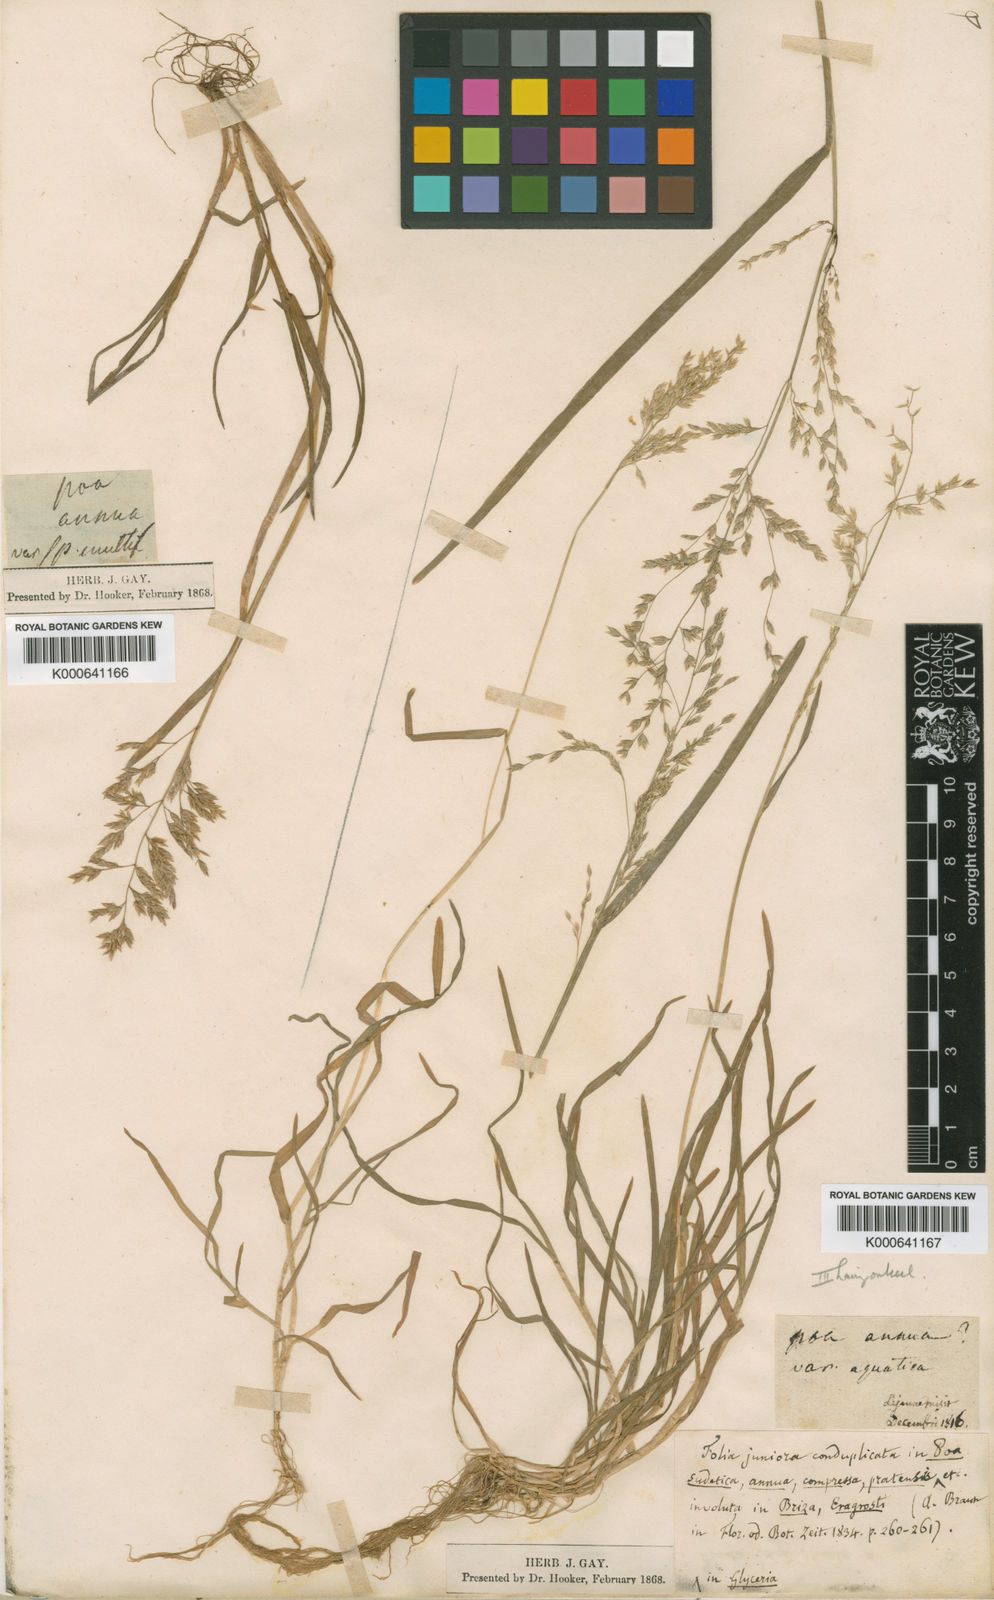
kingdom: Plantae
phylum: Tracheophyta
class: Liliopsida
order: Poales
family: Poaceae
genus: Poa
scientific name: Poa annua
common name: Annual bluegrass
